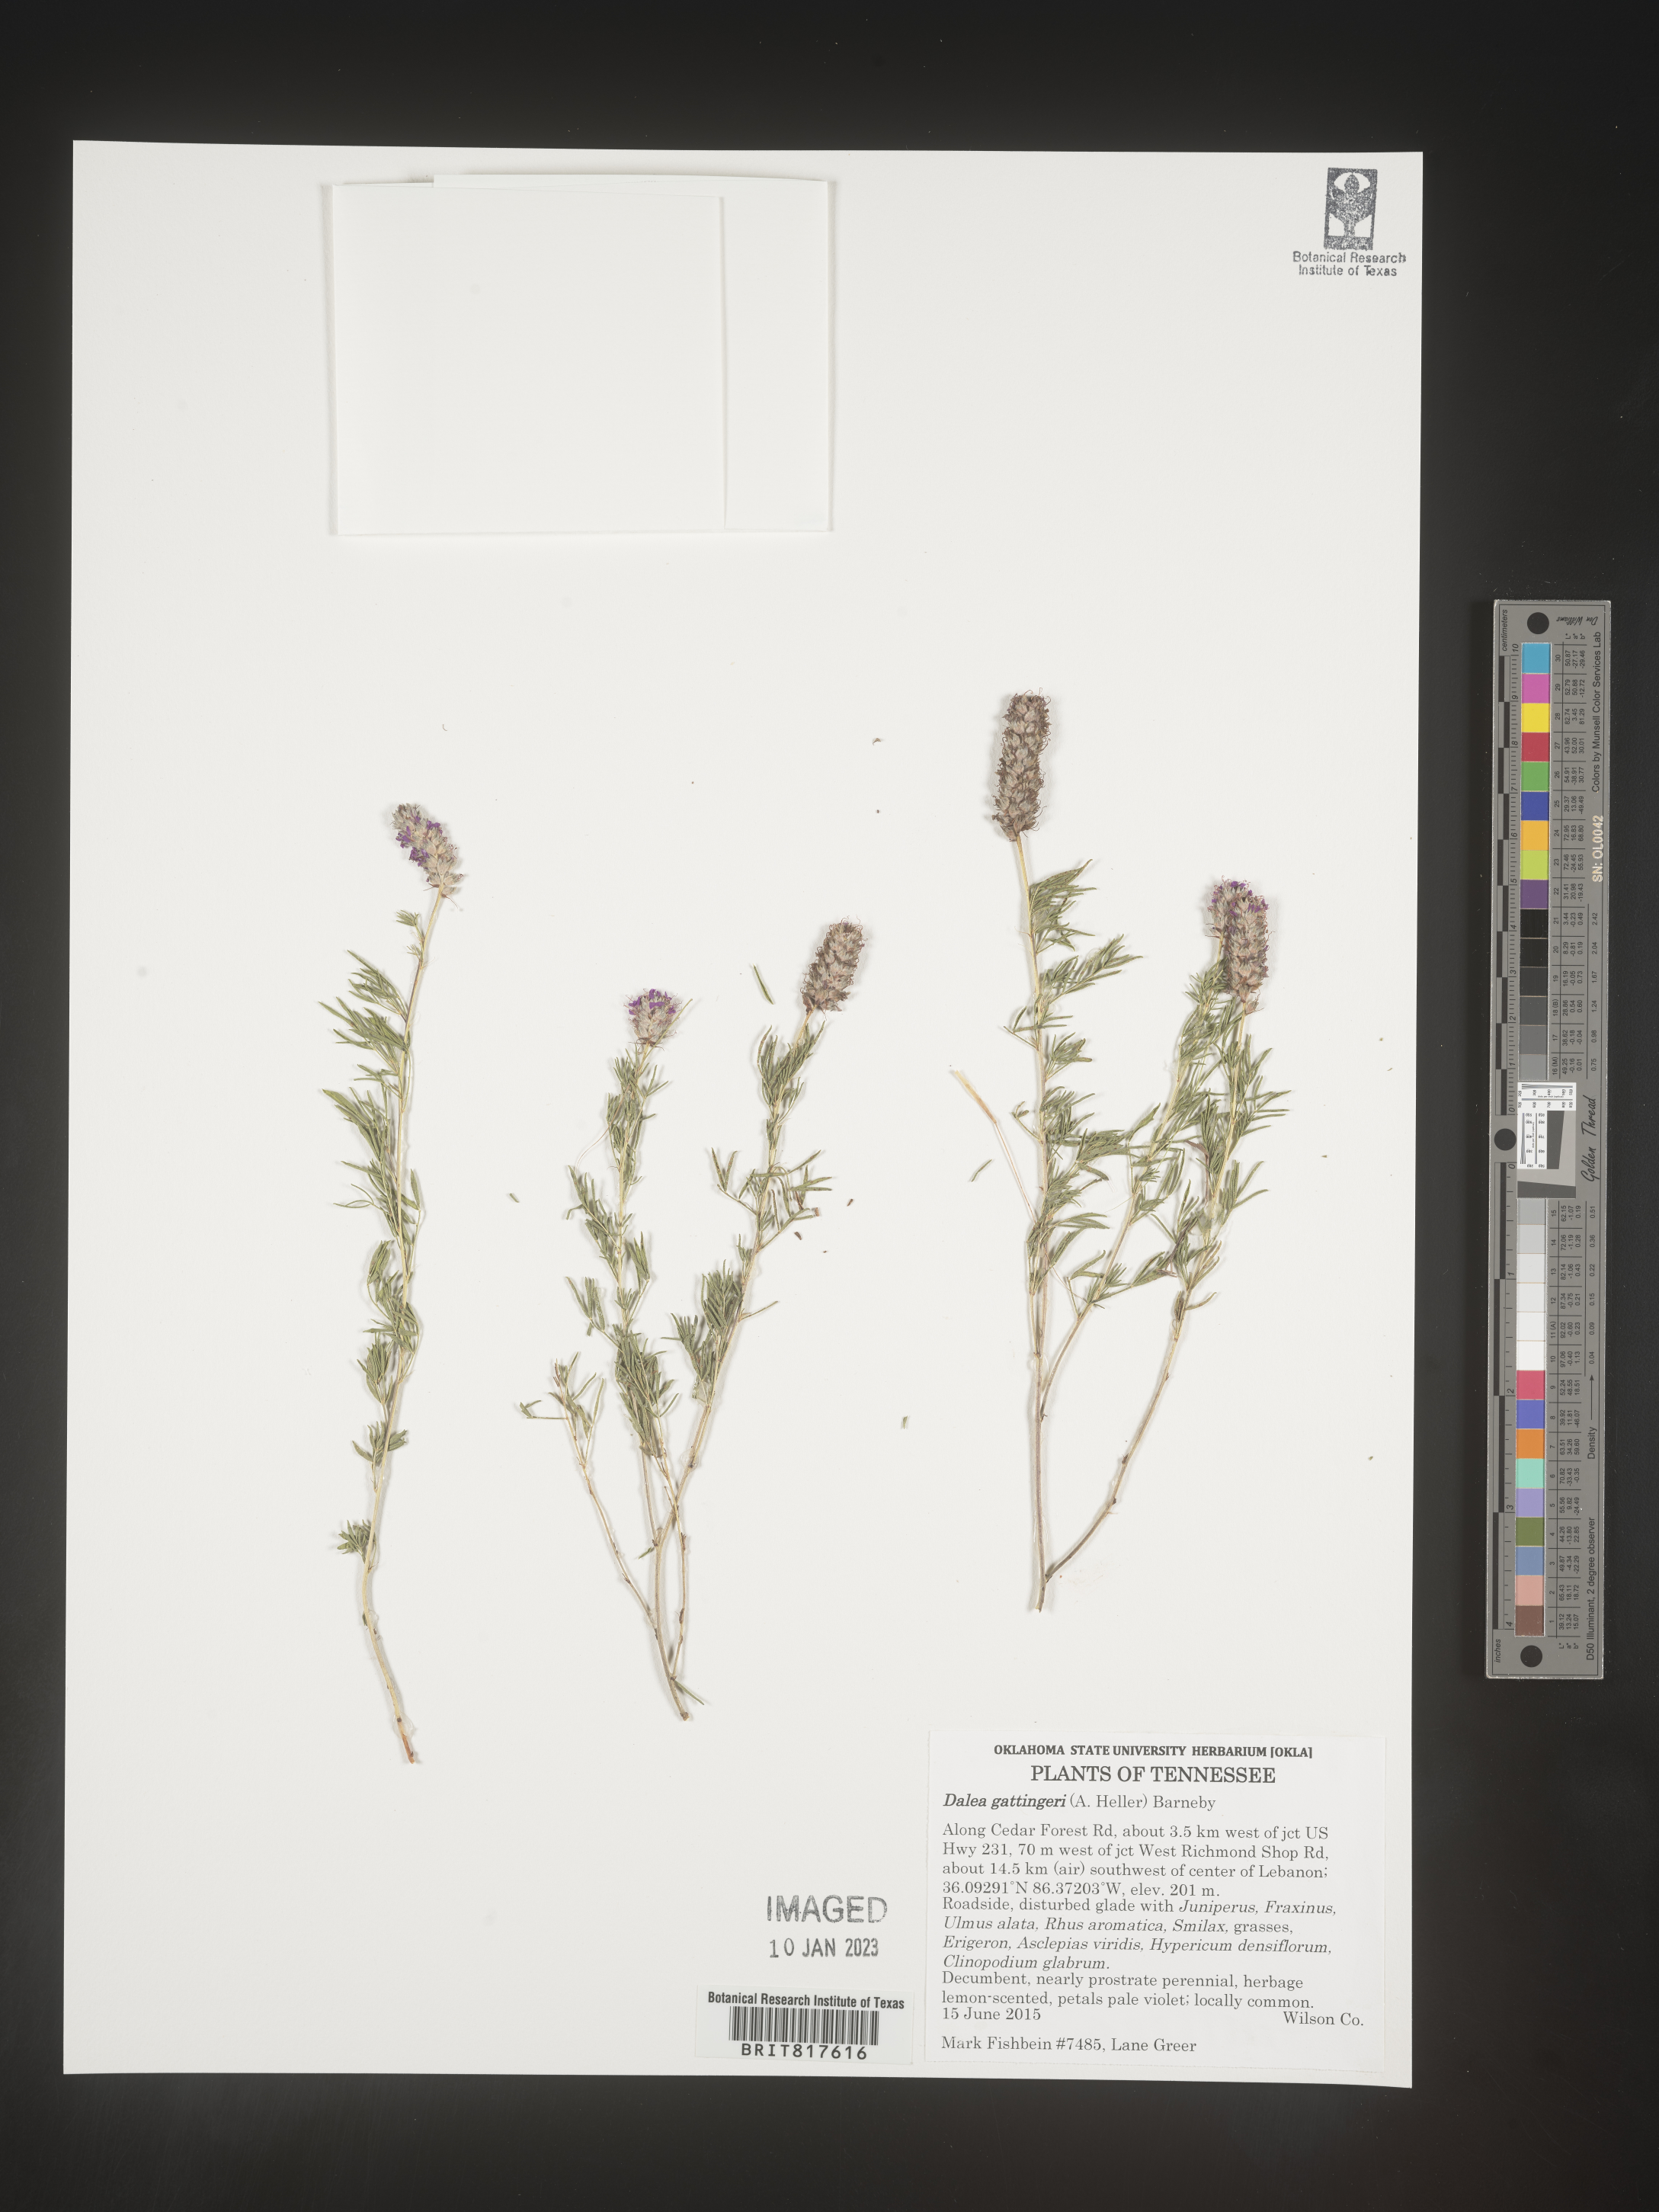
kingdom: Plantae
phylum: Tracheophyta
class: Magnoliopsida
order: Fabales
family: Fabaceae
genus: Dalea
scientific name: Dalea gattingeri
